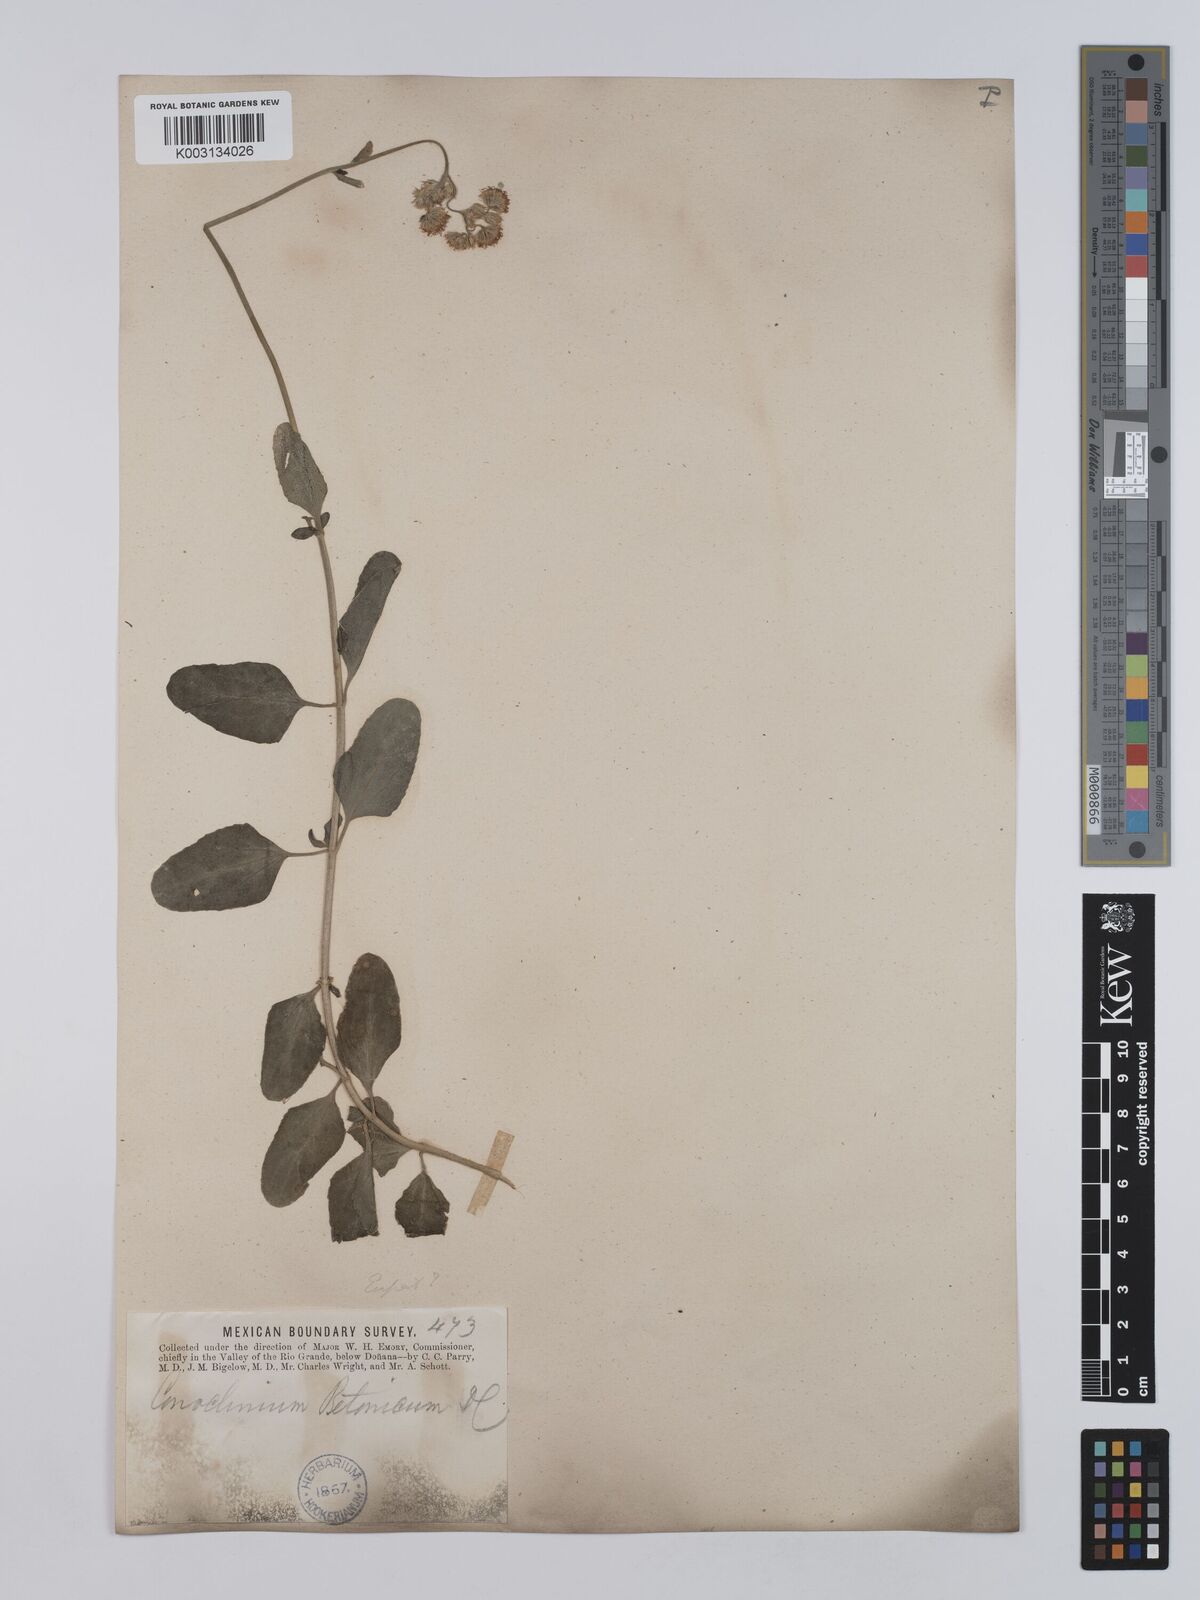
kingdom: Plantae
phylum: Tracheophyta
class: Magnoliopsida
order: Asterales
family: Asteraceae
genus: Conoclinium
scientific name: Conoclinium betonicifolium
